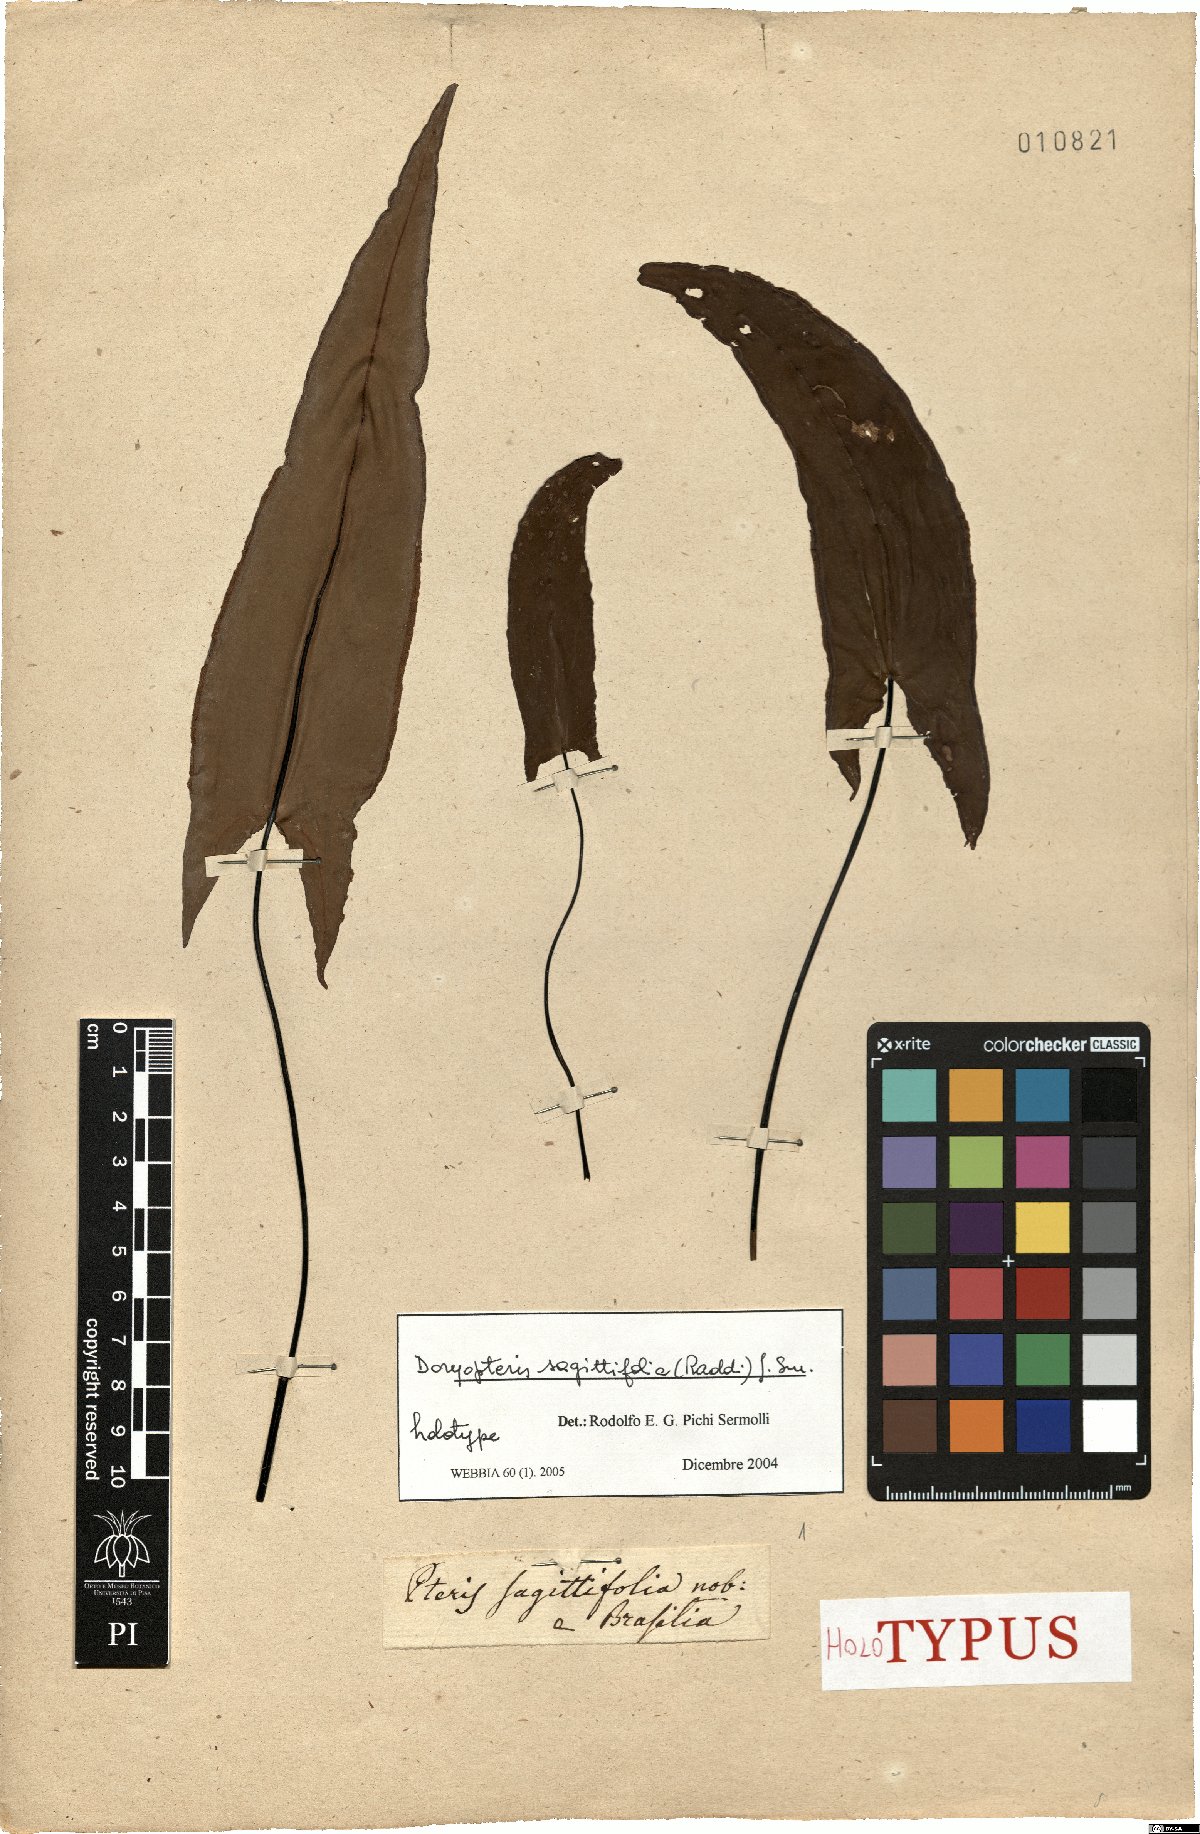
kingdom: Plantae
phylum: Tracheophyta
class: Polypodiopsida
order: Polypodiales
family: Pteridaceae
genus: Doryopteris
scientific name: Doryopteris sagittifolia
